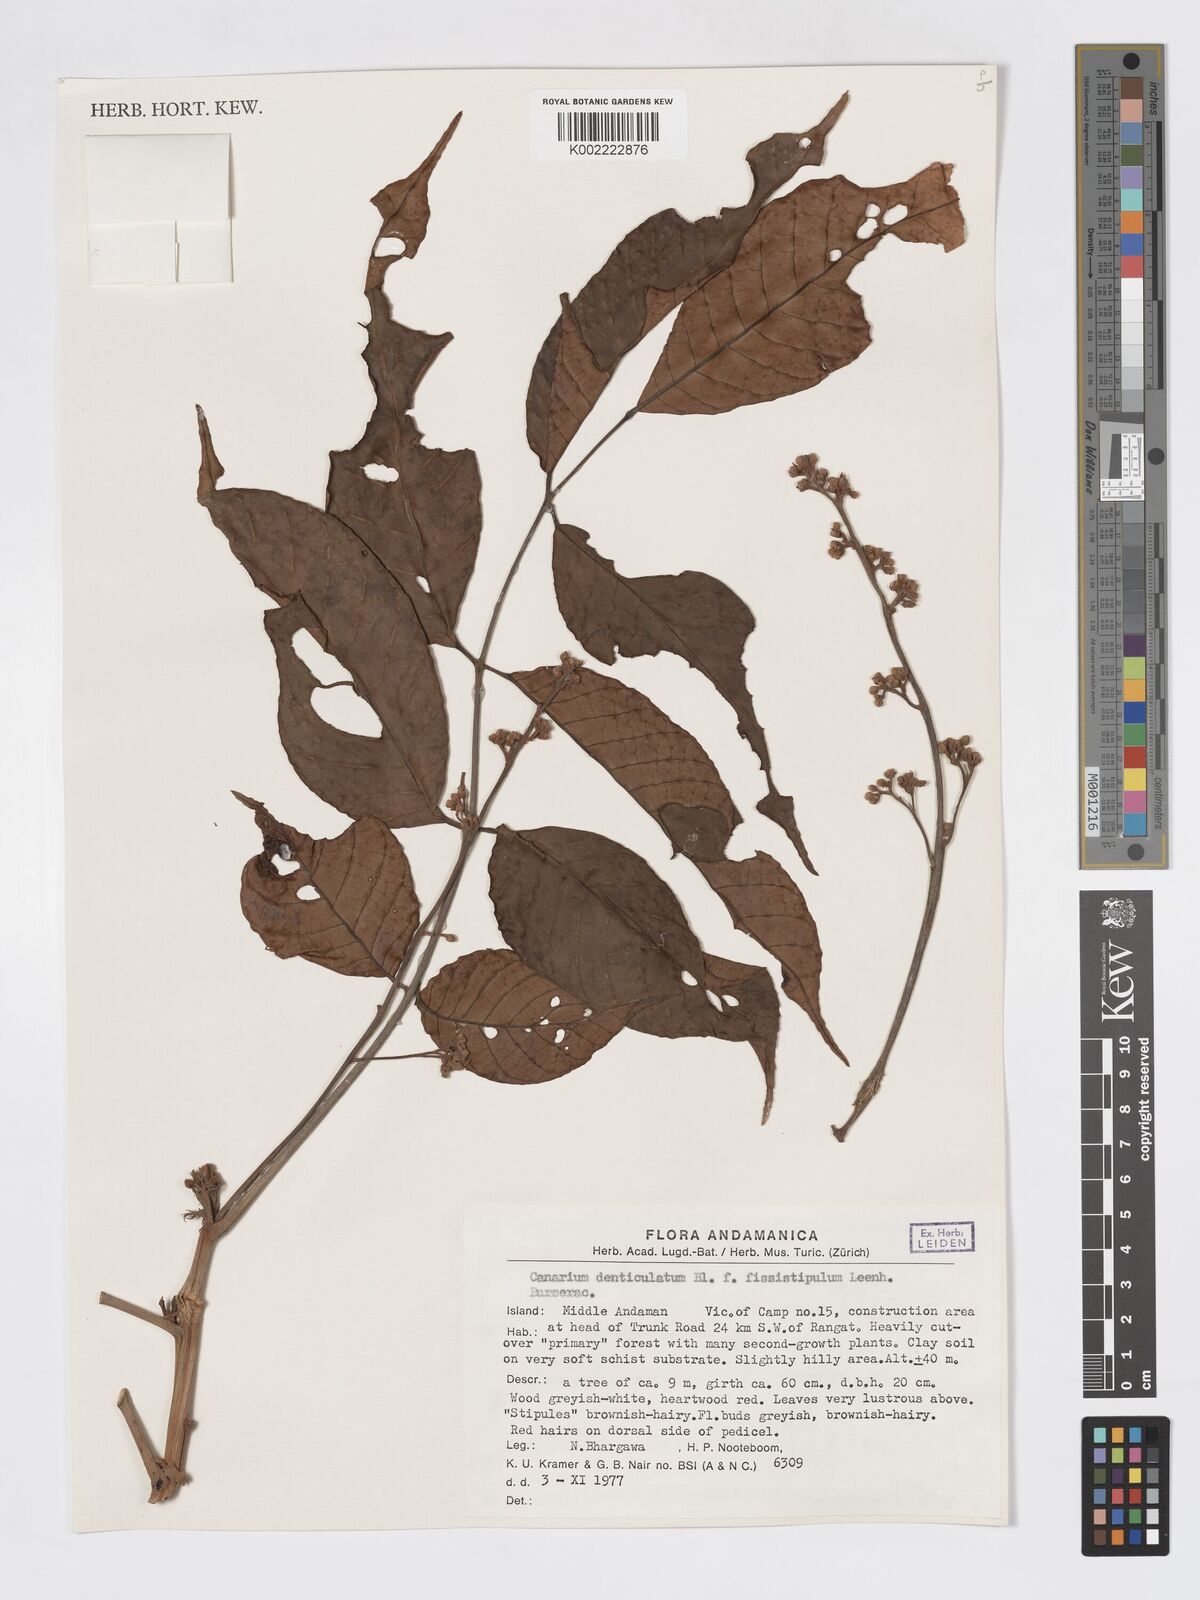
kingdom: Plantae
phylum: Tracheophyta
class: Magnoliopsida
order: Sapindales
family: Burseraceae
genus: Canarium
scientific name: Canarium denticulatum
